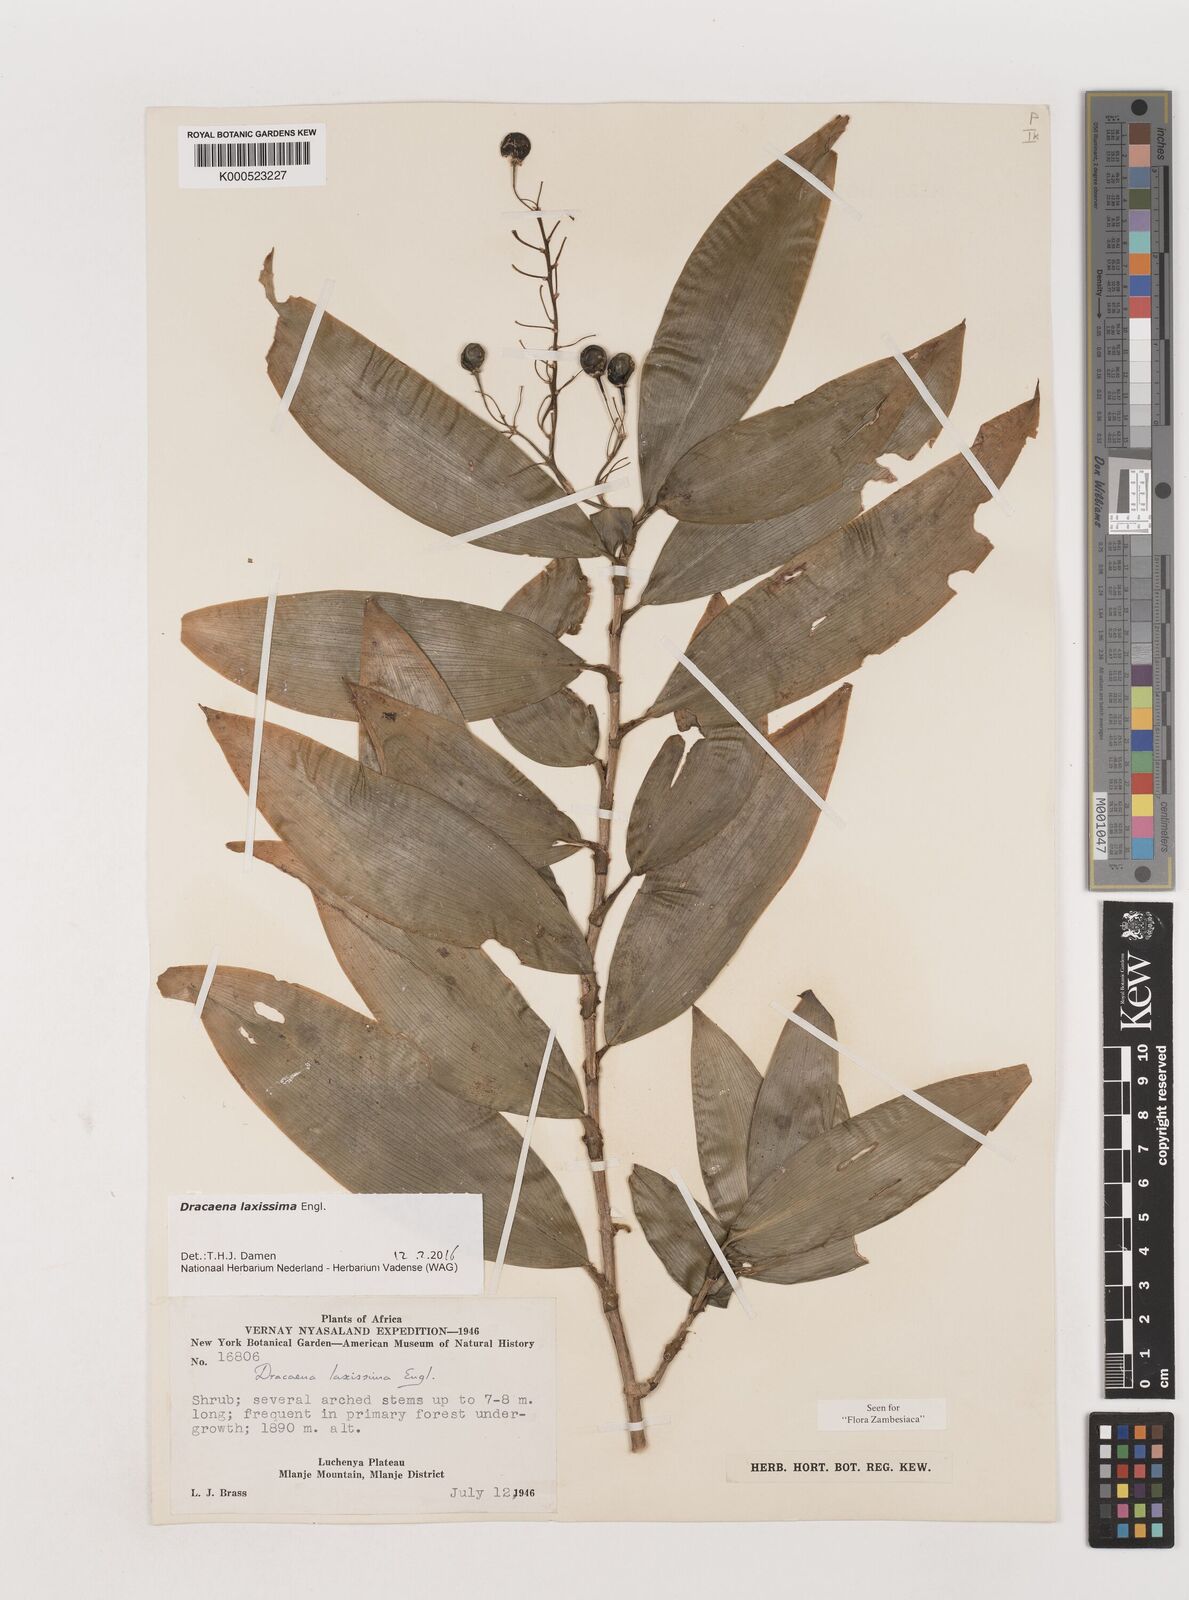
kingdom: Plantae
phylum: Tracheophyta
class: Liliopsida
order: Asparagales
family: Asparagaceae
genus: Dracaena
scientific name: Dracaena laxissima
